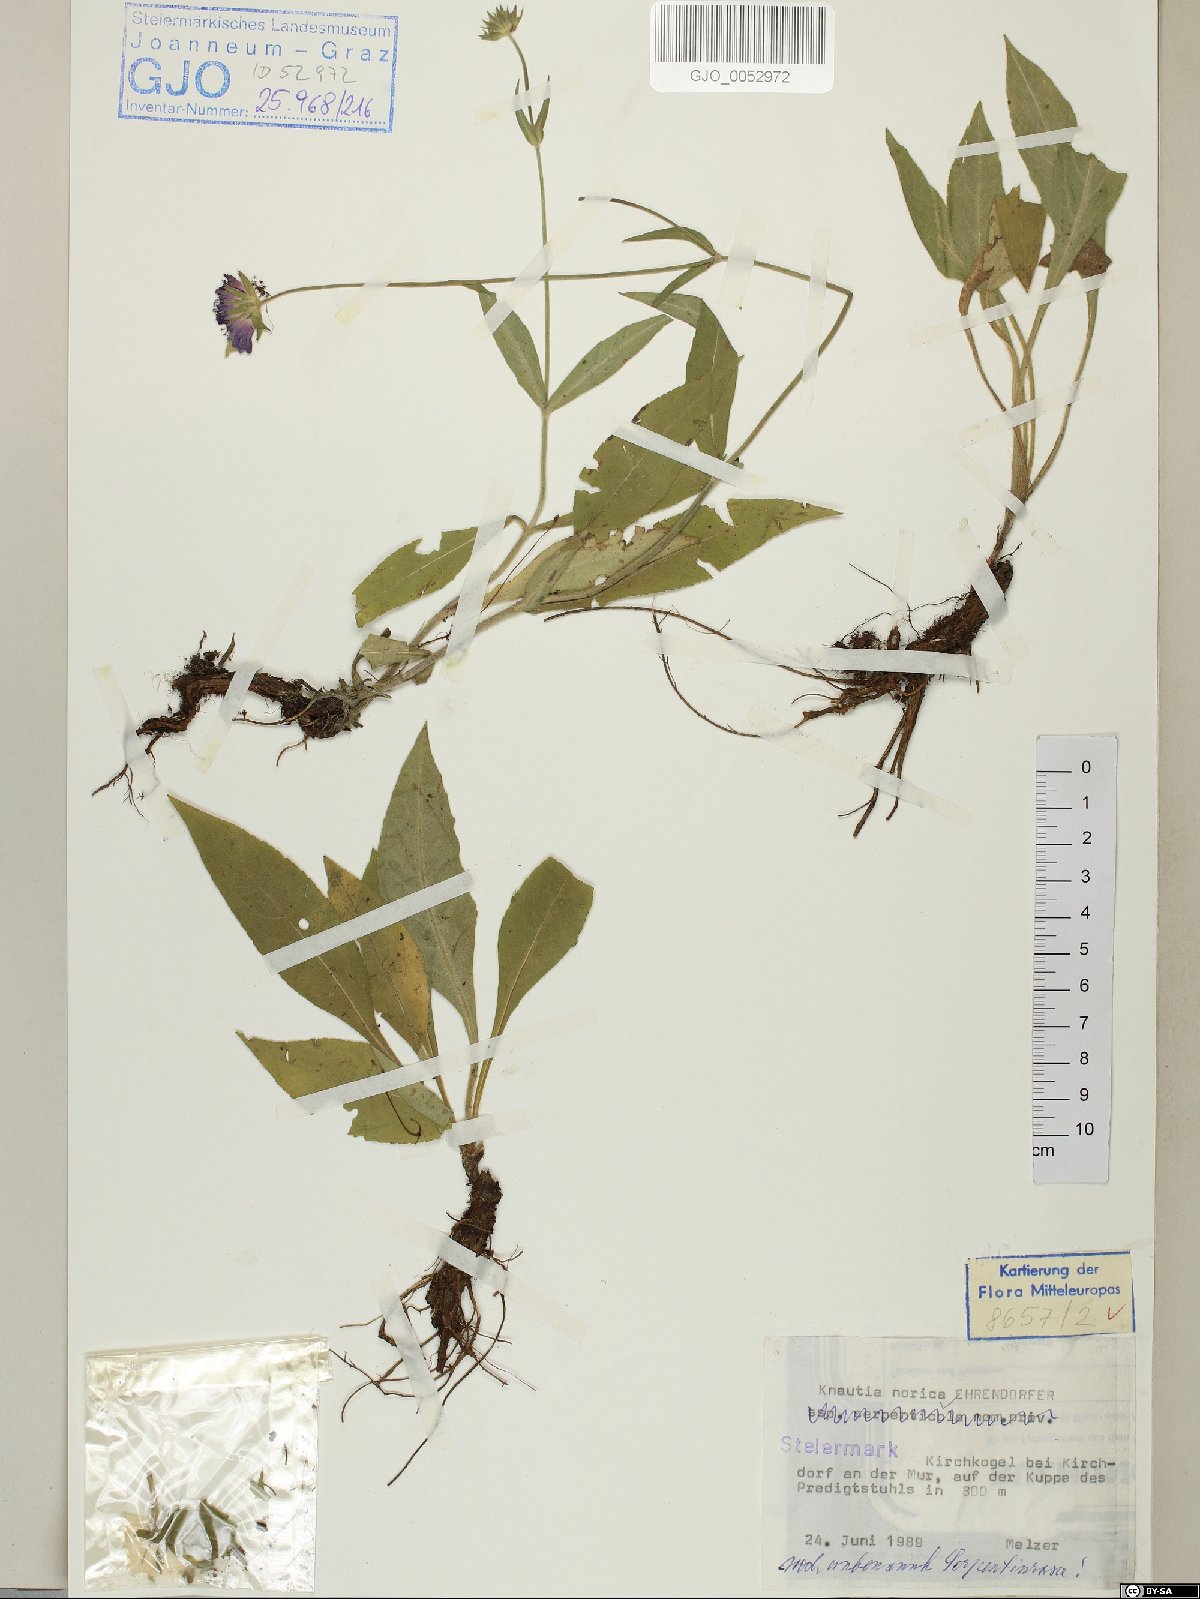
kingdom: Plantae
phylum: Tracheophyta
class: Magnoliopsida
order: Dipsacales
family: Caprifoliaceae
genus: Knautia
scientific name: Knautia norica
